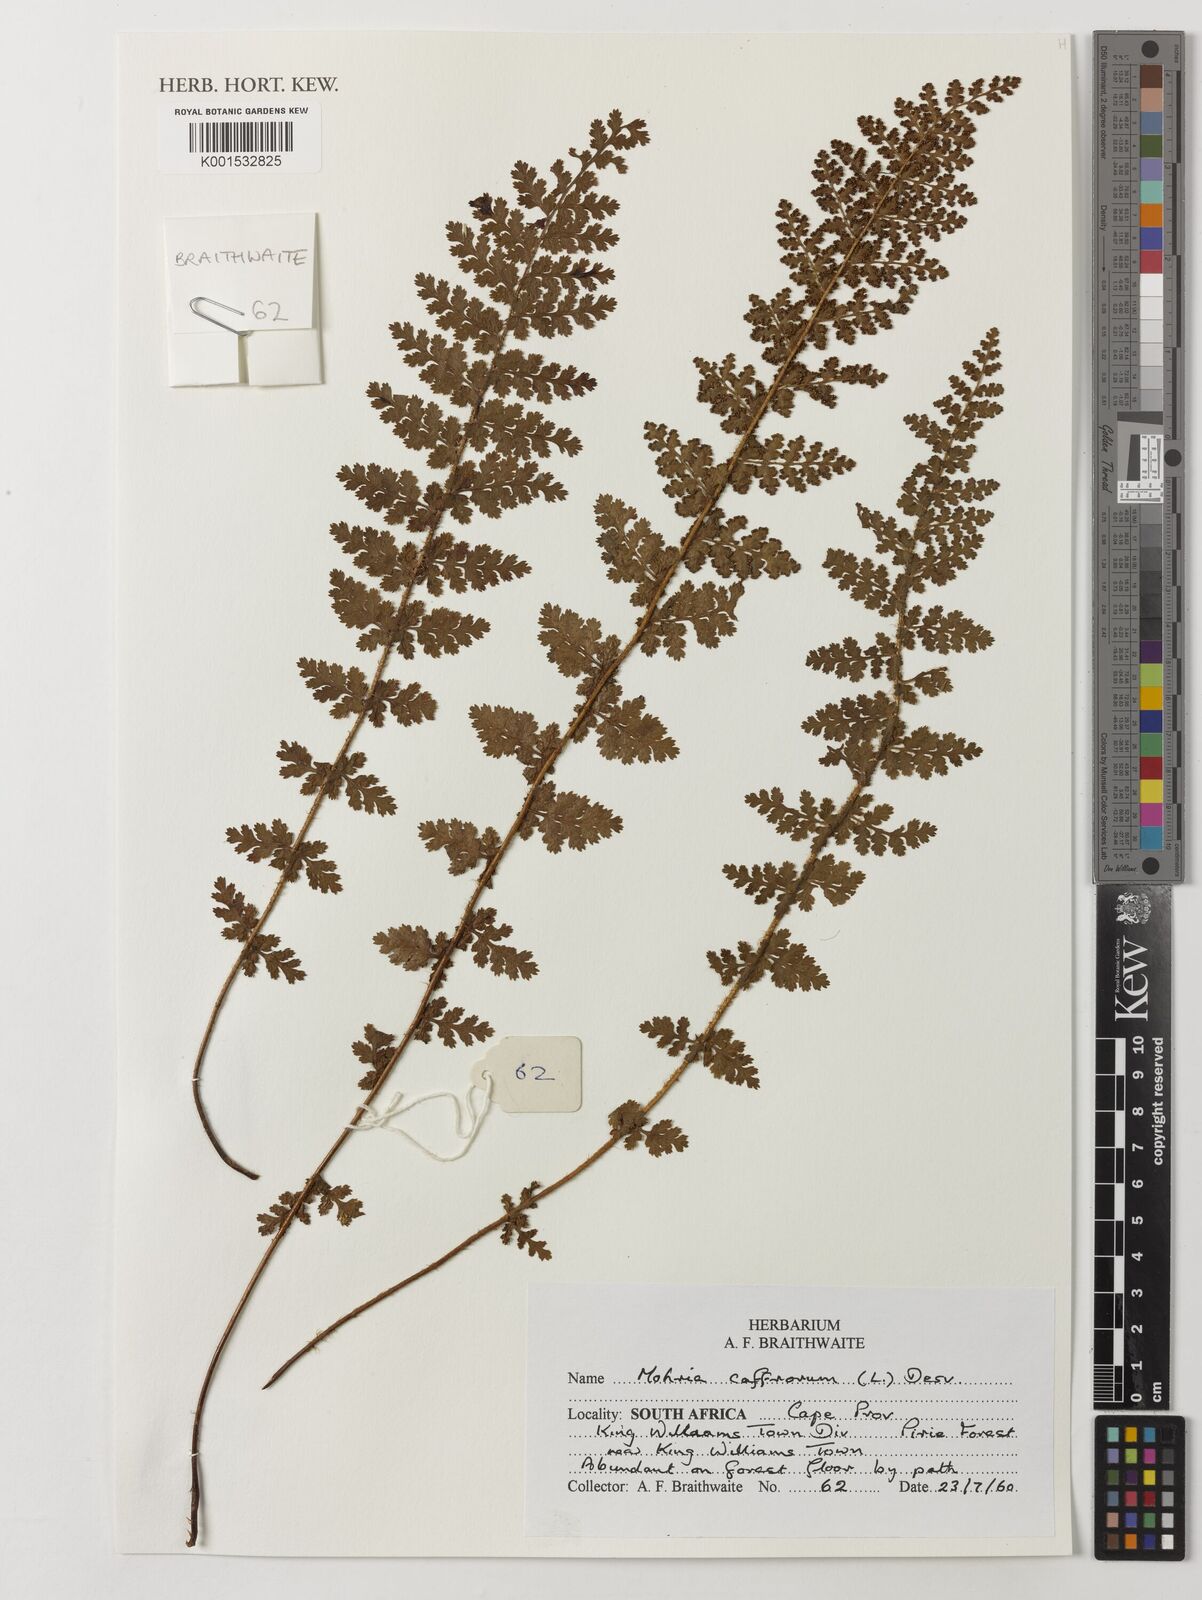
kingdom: Plantae
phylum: Tracheophyta
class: Polypodiopsida
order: Schizaeales
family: Anemiaceae
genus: Anemia
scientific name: Anemia caffrorum
